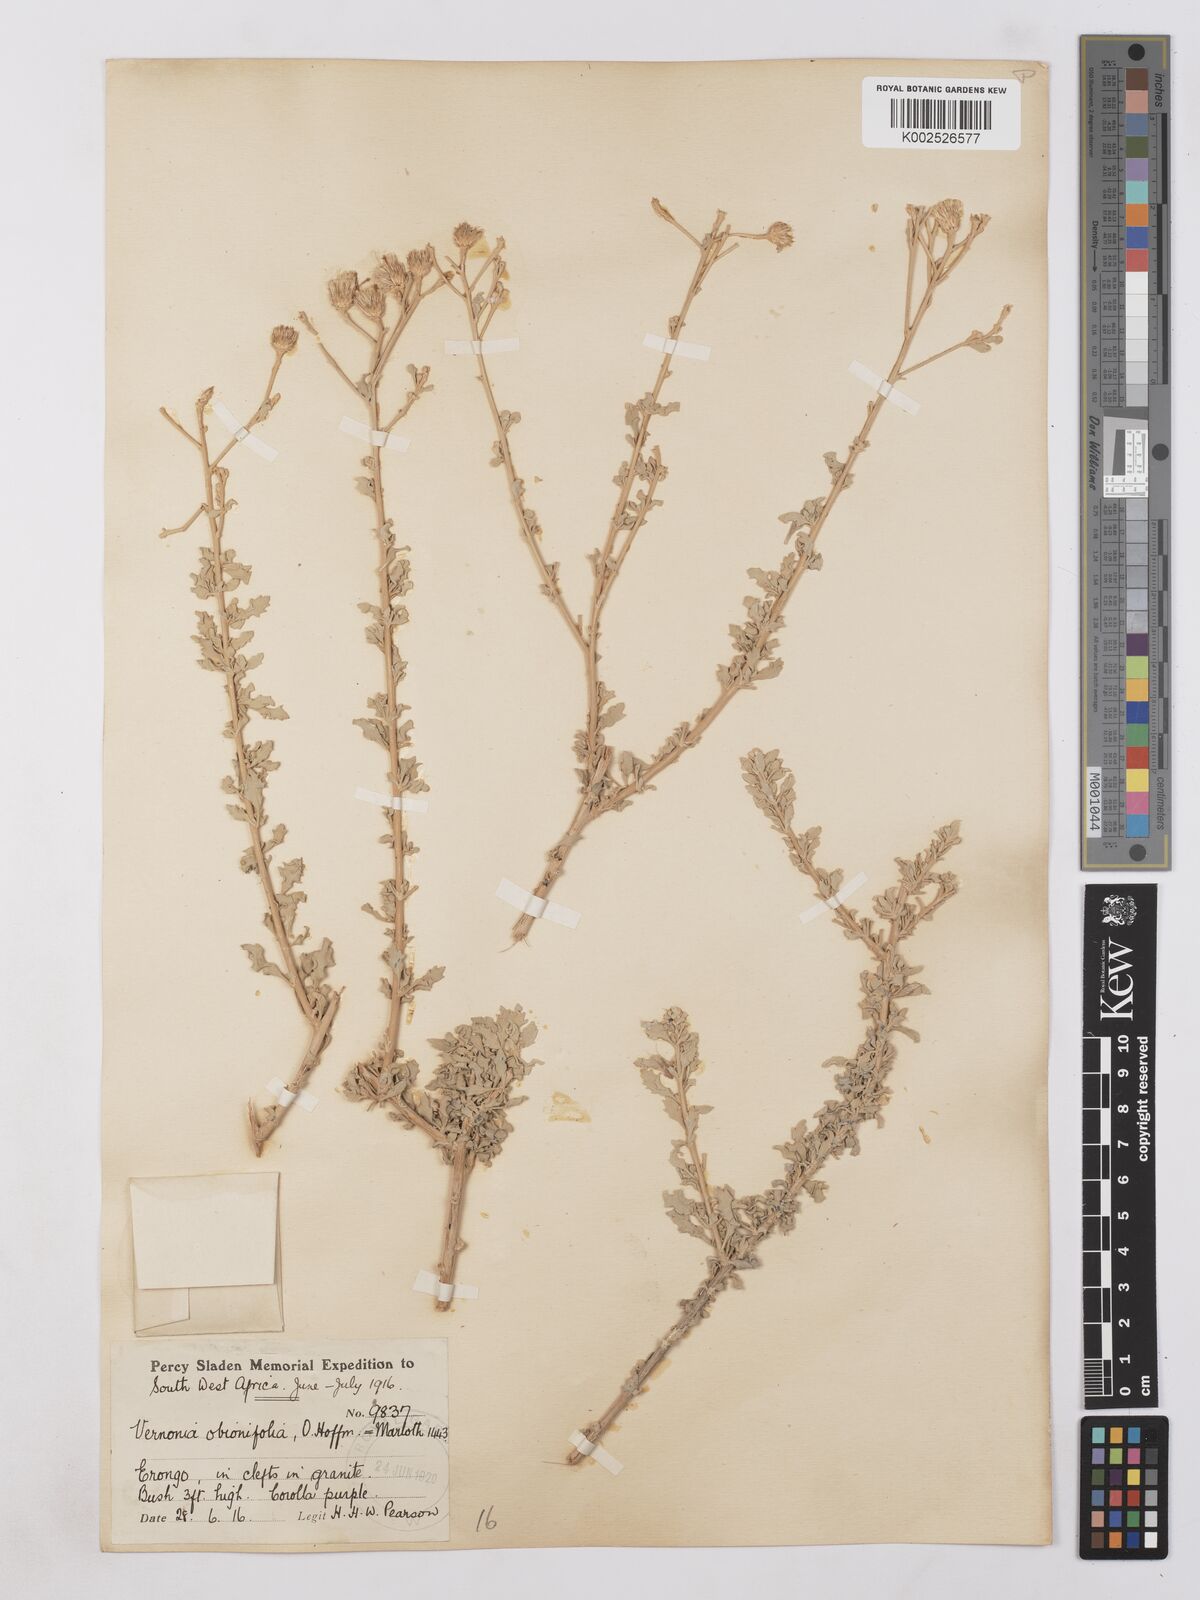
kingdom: Plantae
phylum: Tracheophyta
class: Magnoliopsida
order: Asterales
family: Asteraceae
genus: Namibithamnus
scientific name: Namibithamnus obionifolius
